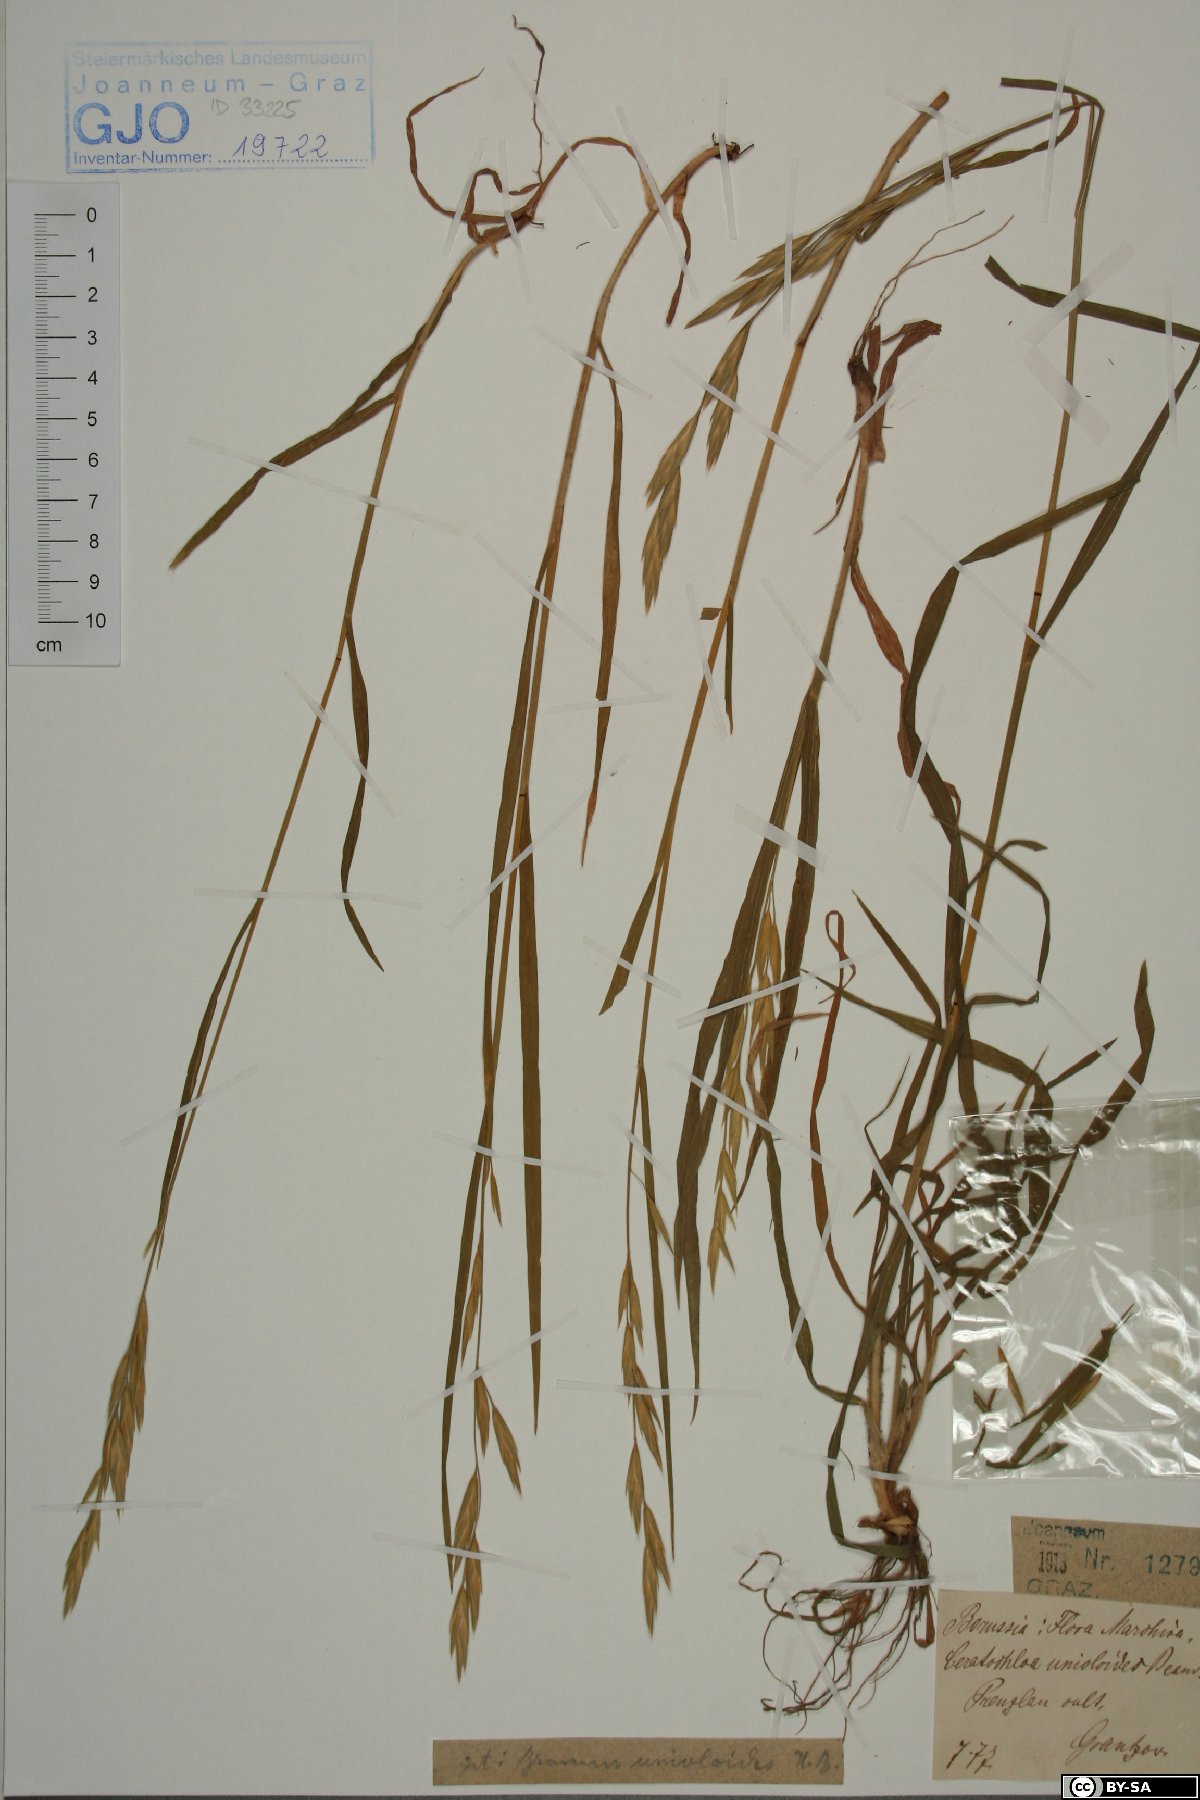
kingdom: Plantae
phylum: Tracheophyta
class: Liliopsida
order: Poales
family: Poaceae
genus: Bromus
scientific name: Bromus catharticus
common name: Rescuegrass
